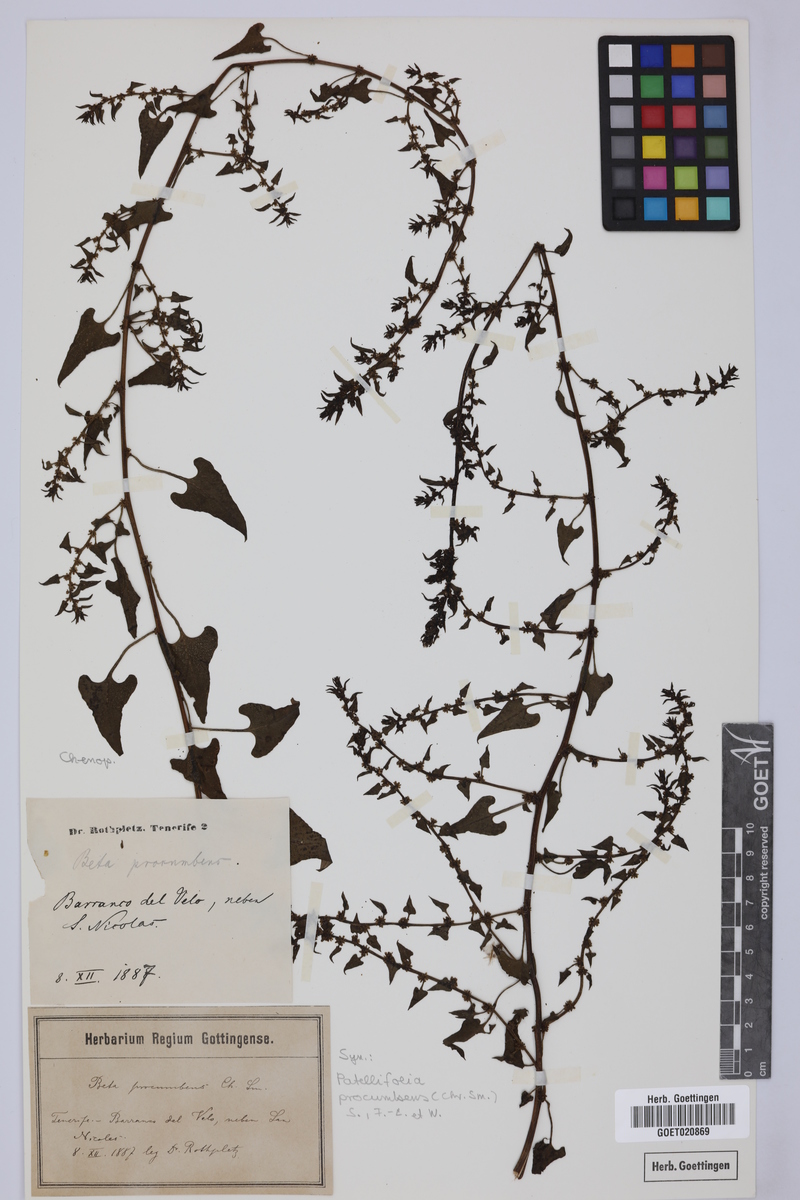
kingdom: Plantae
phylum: Tracheophyta
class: Magnoliopsida
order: Caryophyllales
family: Amaranthaceae
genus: Patellifolia
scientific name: Patellifolia procumbens
